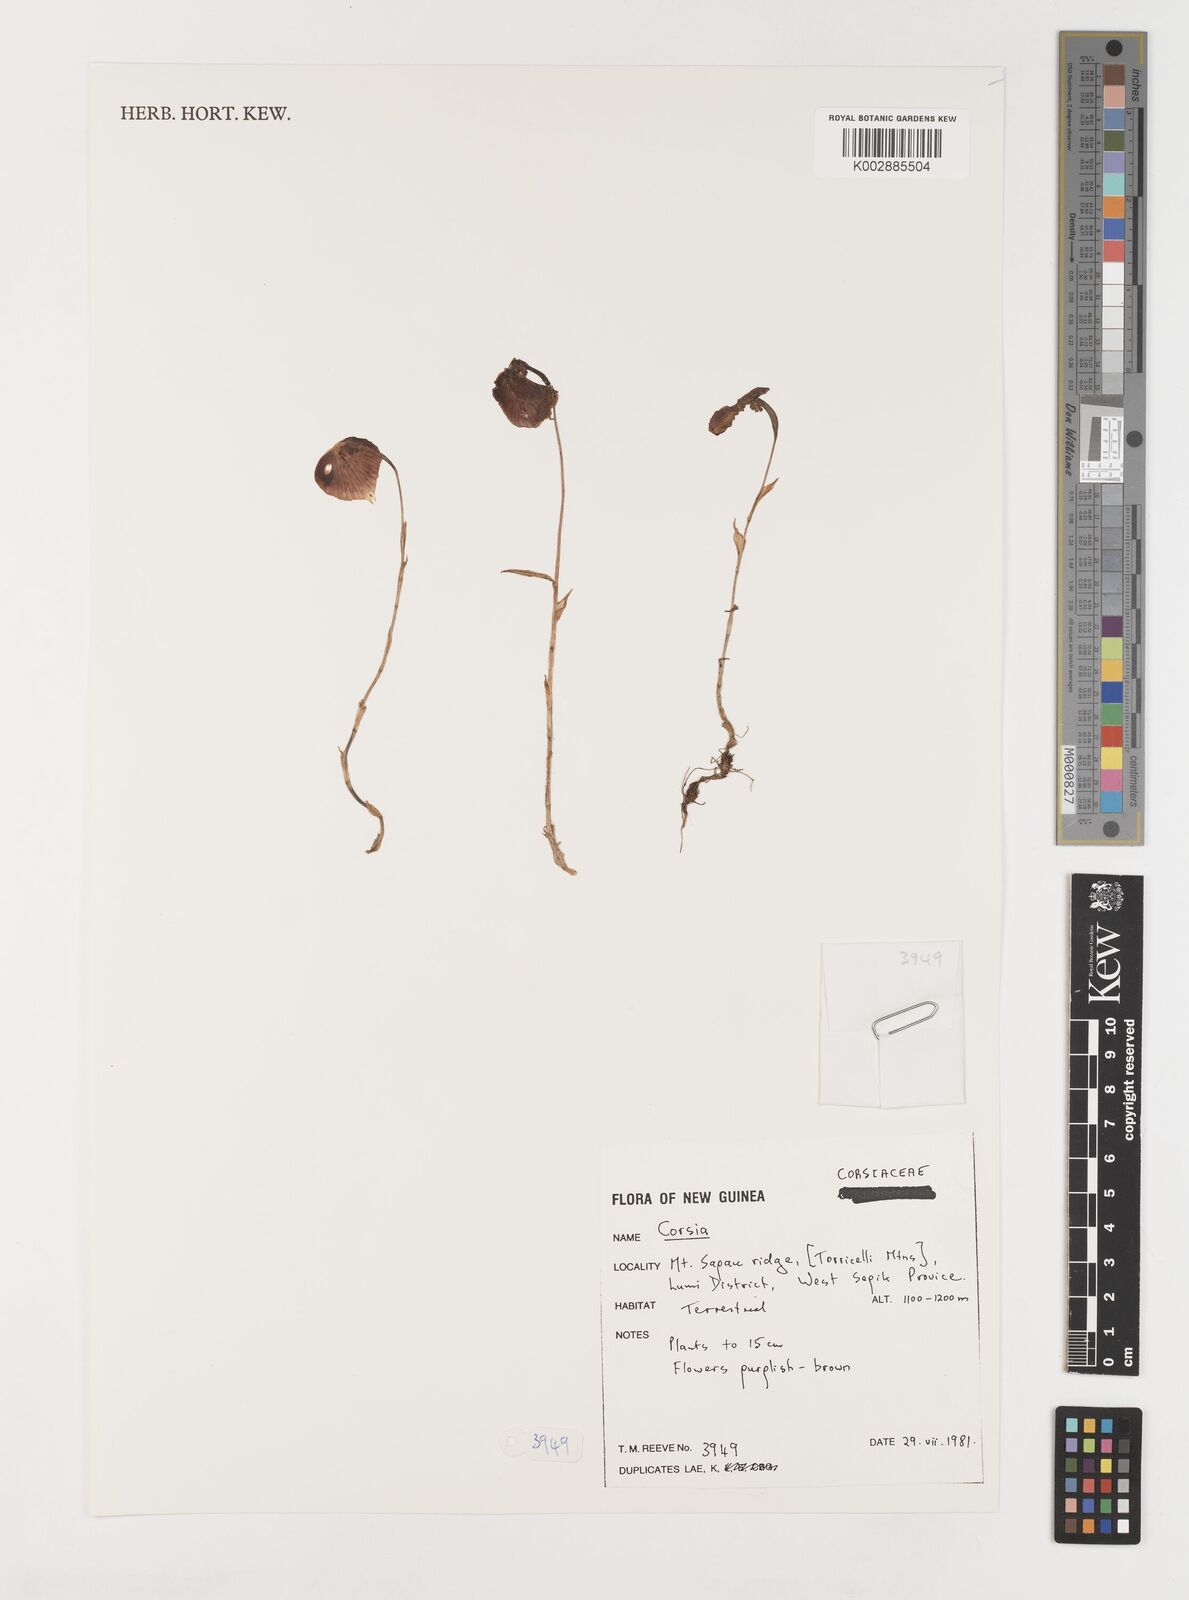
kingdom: Plantae
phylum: Tracheophyta
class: Liliopsida
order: Liliales
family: Corsiaceae
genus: Corsia
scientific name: Corsia
